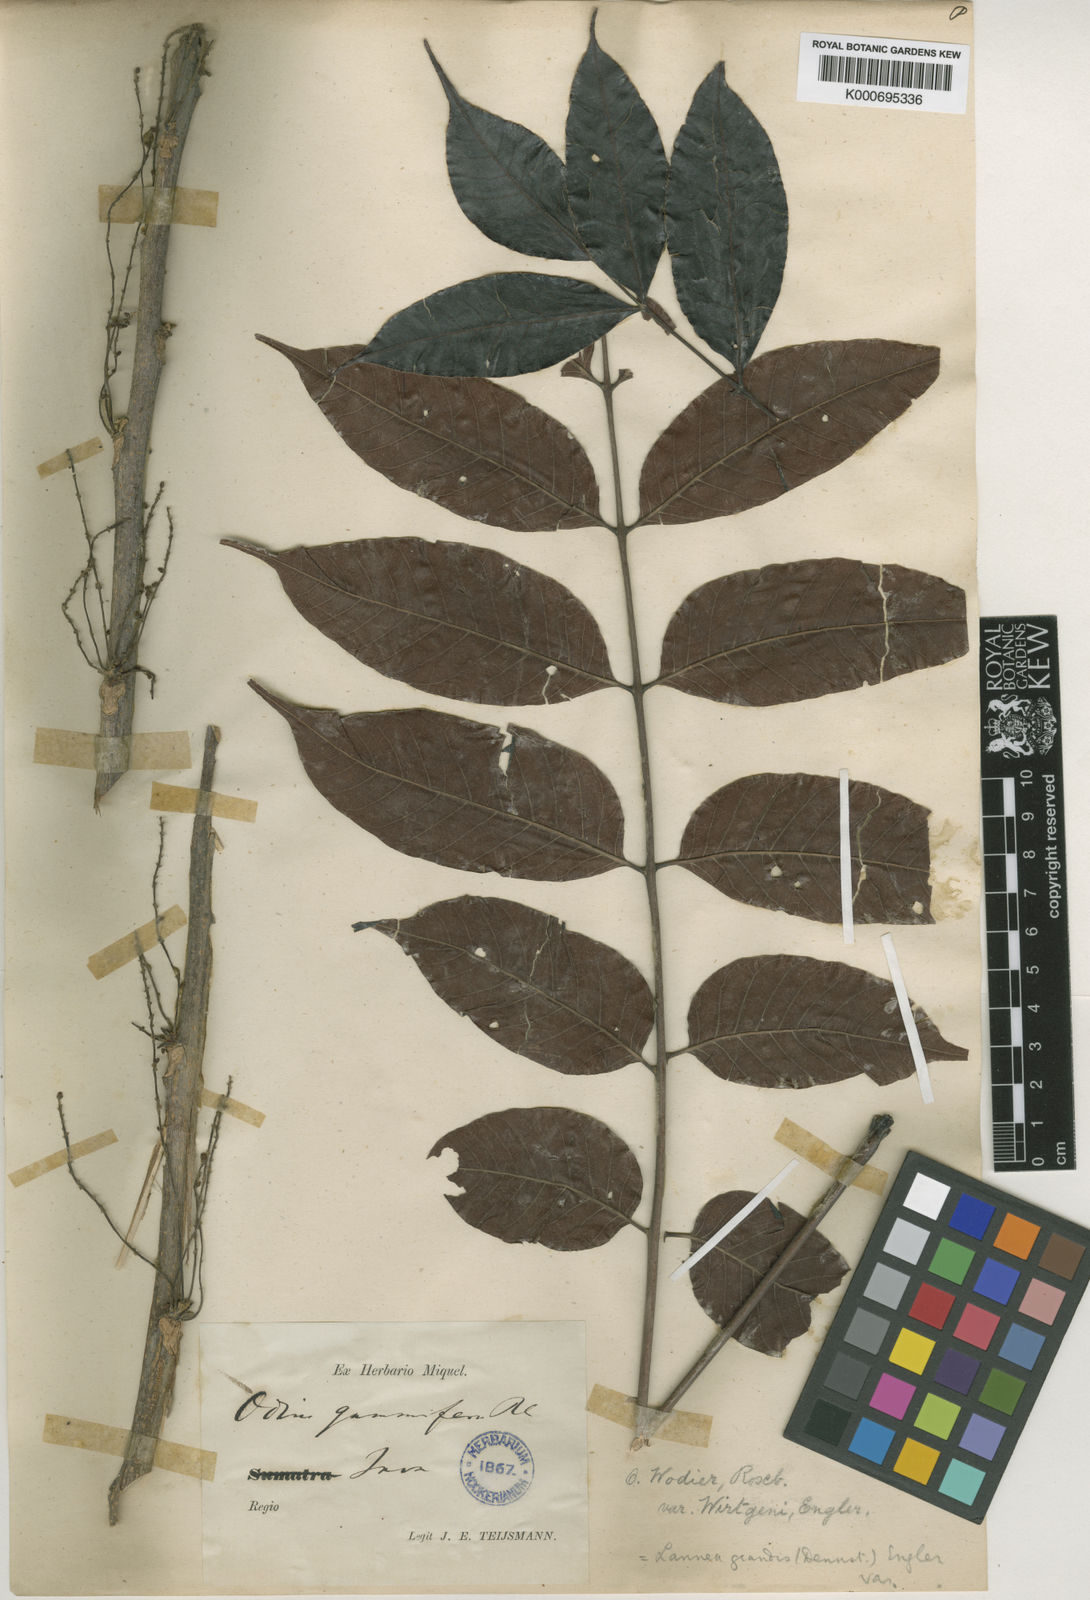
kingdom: Plantae
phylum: Tracheophyta
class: Magnoliopsida
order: Sapindales
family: Anacardiaceae
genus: Lannea
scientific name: Lannea coromandelica
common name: Indian ash tree
